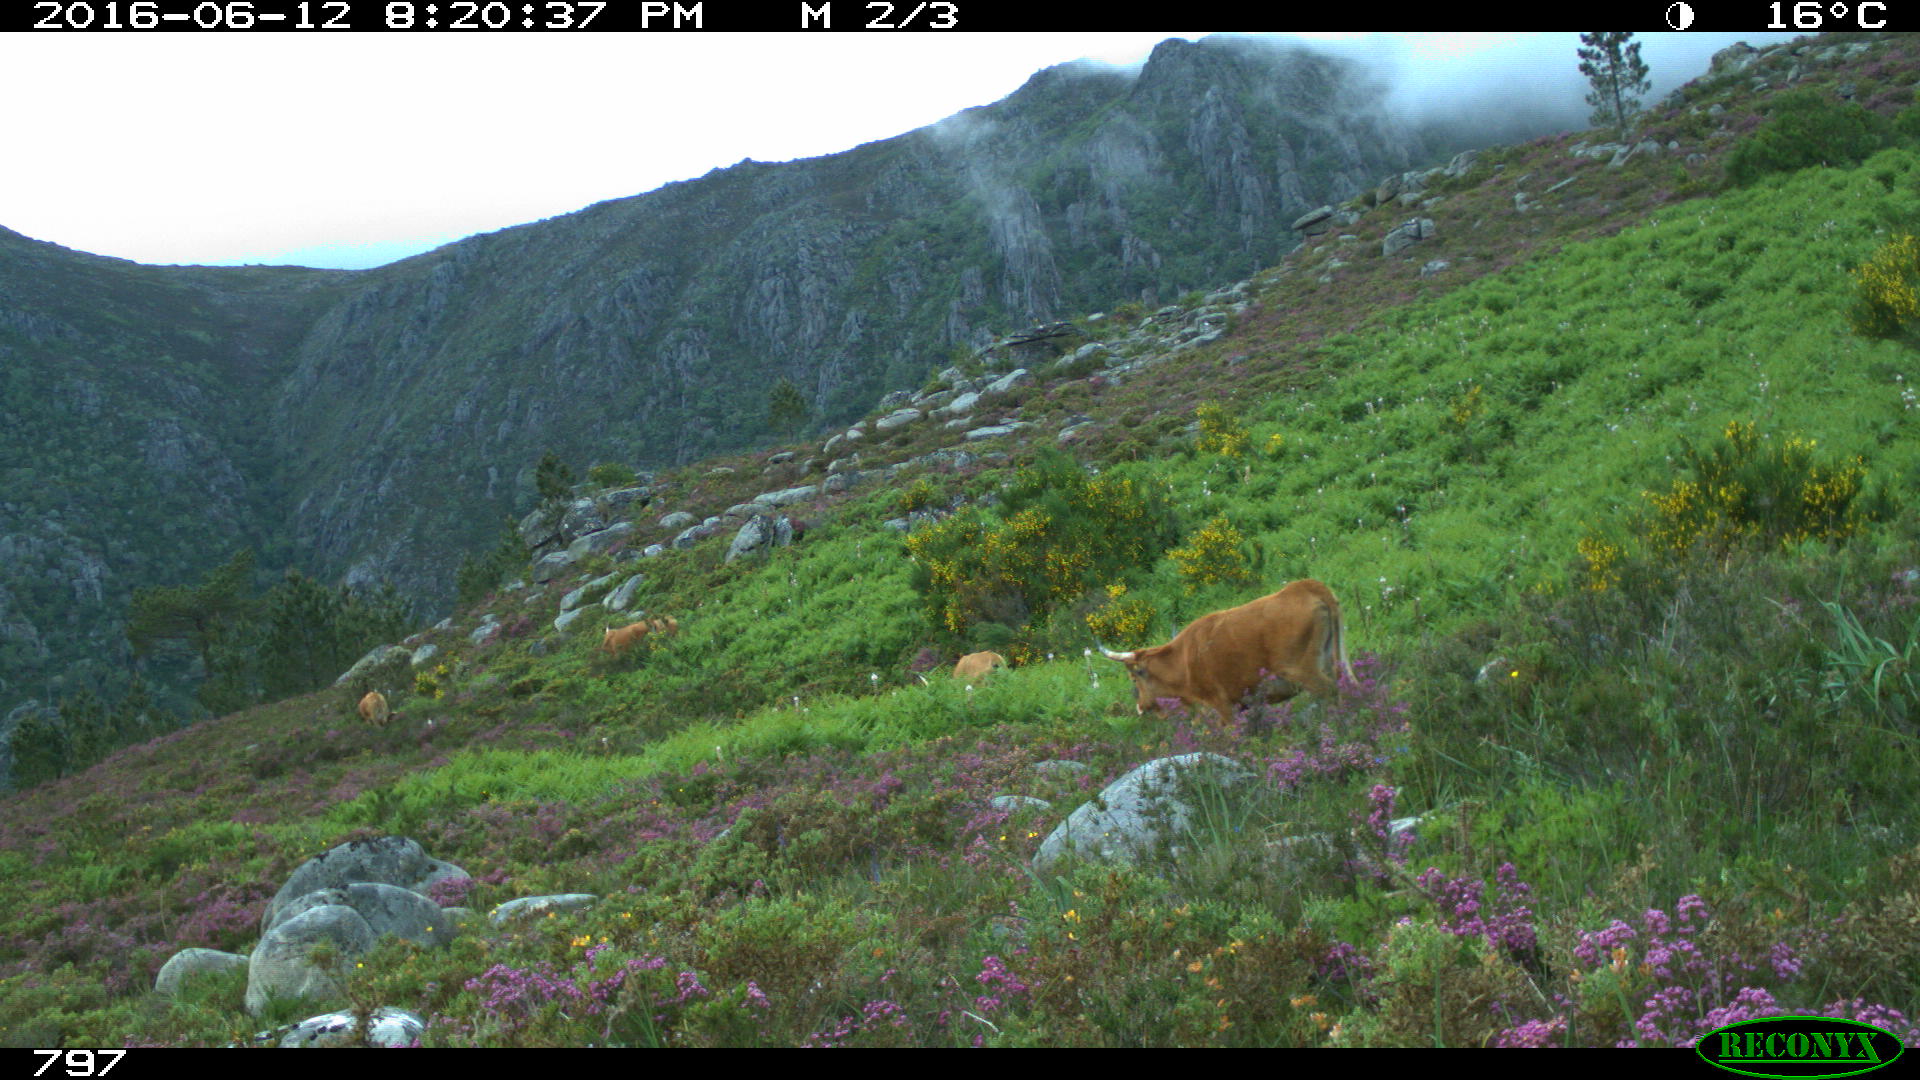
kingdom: Animalia
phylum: Chordata
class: Mammalia
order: Artiodactyla
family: Bovidae
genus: Bos
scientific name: Bos taurus
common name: Domesticated cattle
